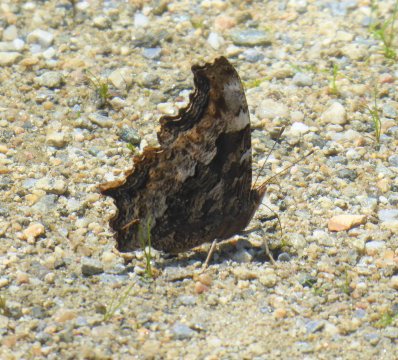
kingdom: Animalia
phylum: Arthropoda
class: Insecta
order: Lepidoptera
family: Nymphalidae
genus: Polygonia
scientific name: Polygonia vaualbum
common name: Compton Tortoiseshell
